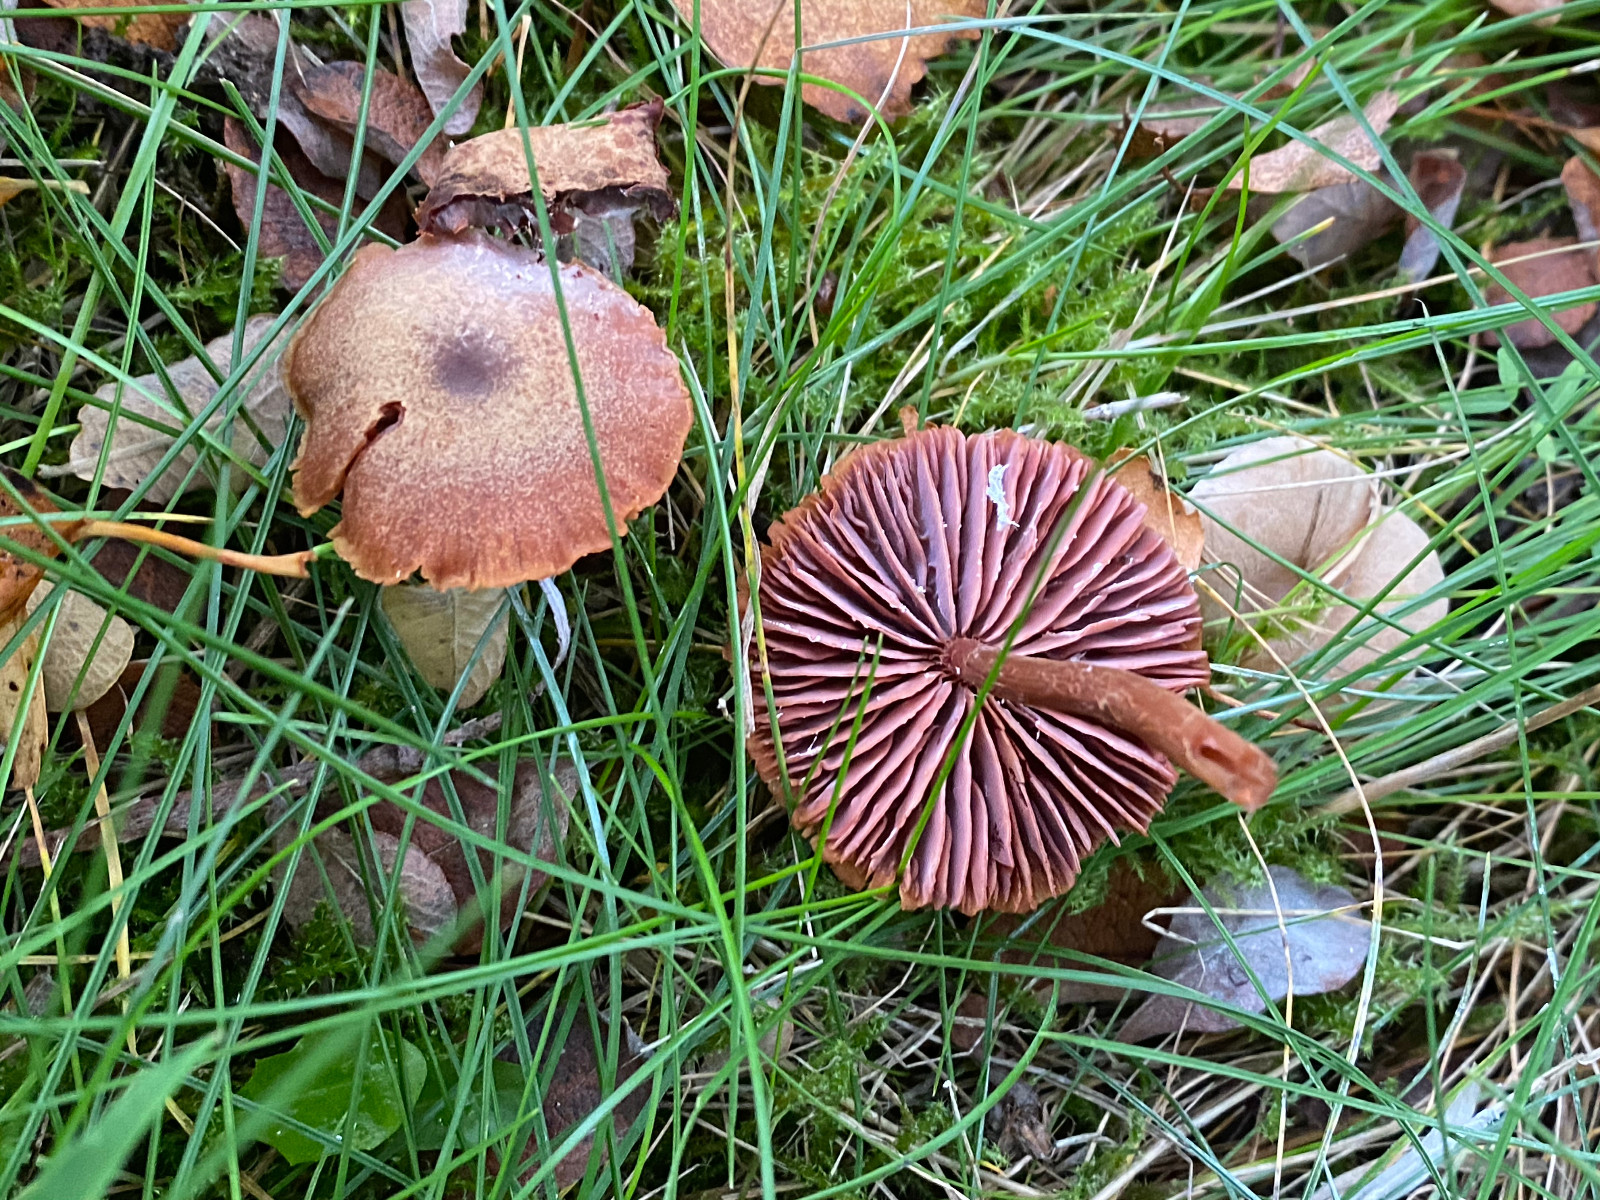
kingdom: Fungi
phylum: Basidiomycota
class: Agaricomycetes
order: Agaricales
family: Hydnangiaceae
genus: Laccaria
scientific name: Laccaria proxima
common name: stor ametysthat
